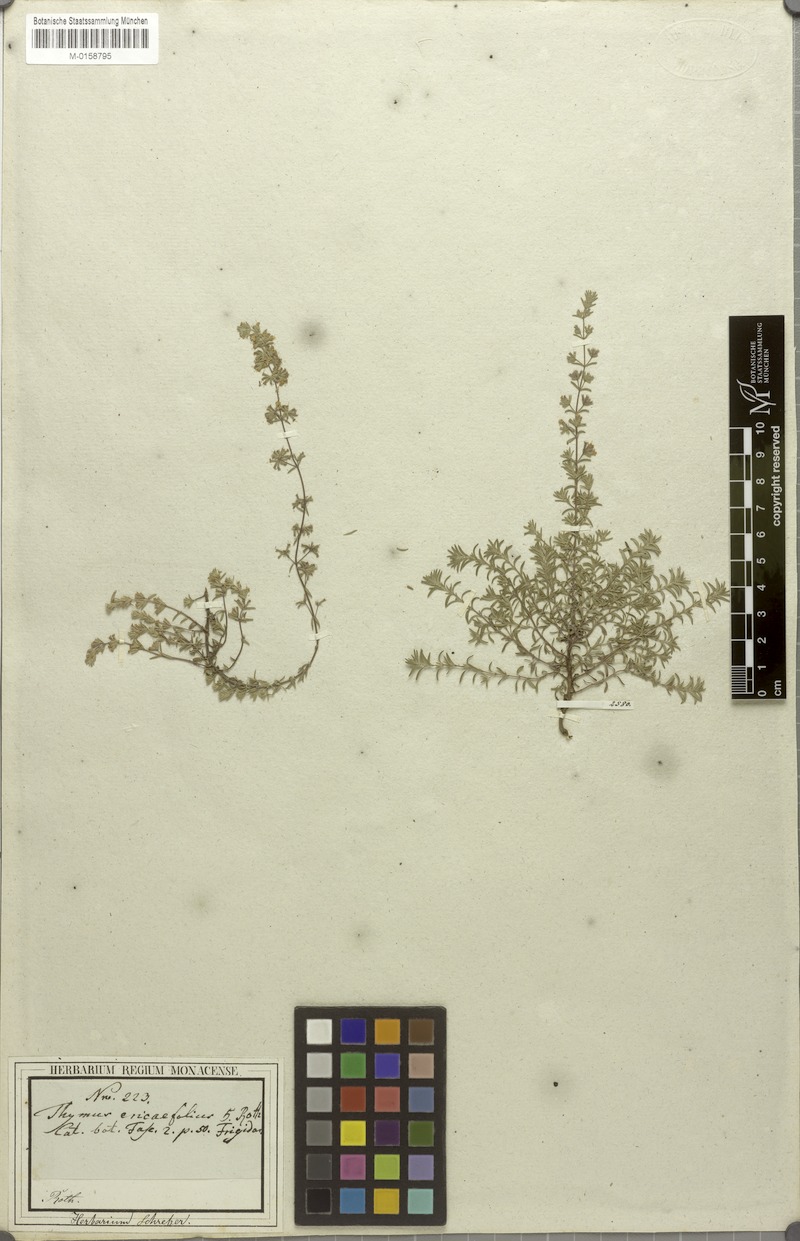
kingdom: Plantae
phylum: Tracheophyta
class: Magnoliopsida
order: Lamiales
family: Lamiaceae
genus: Micromeria
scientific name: Micromeria ericifolia
